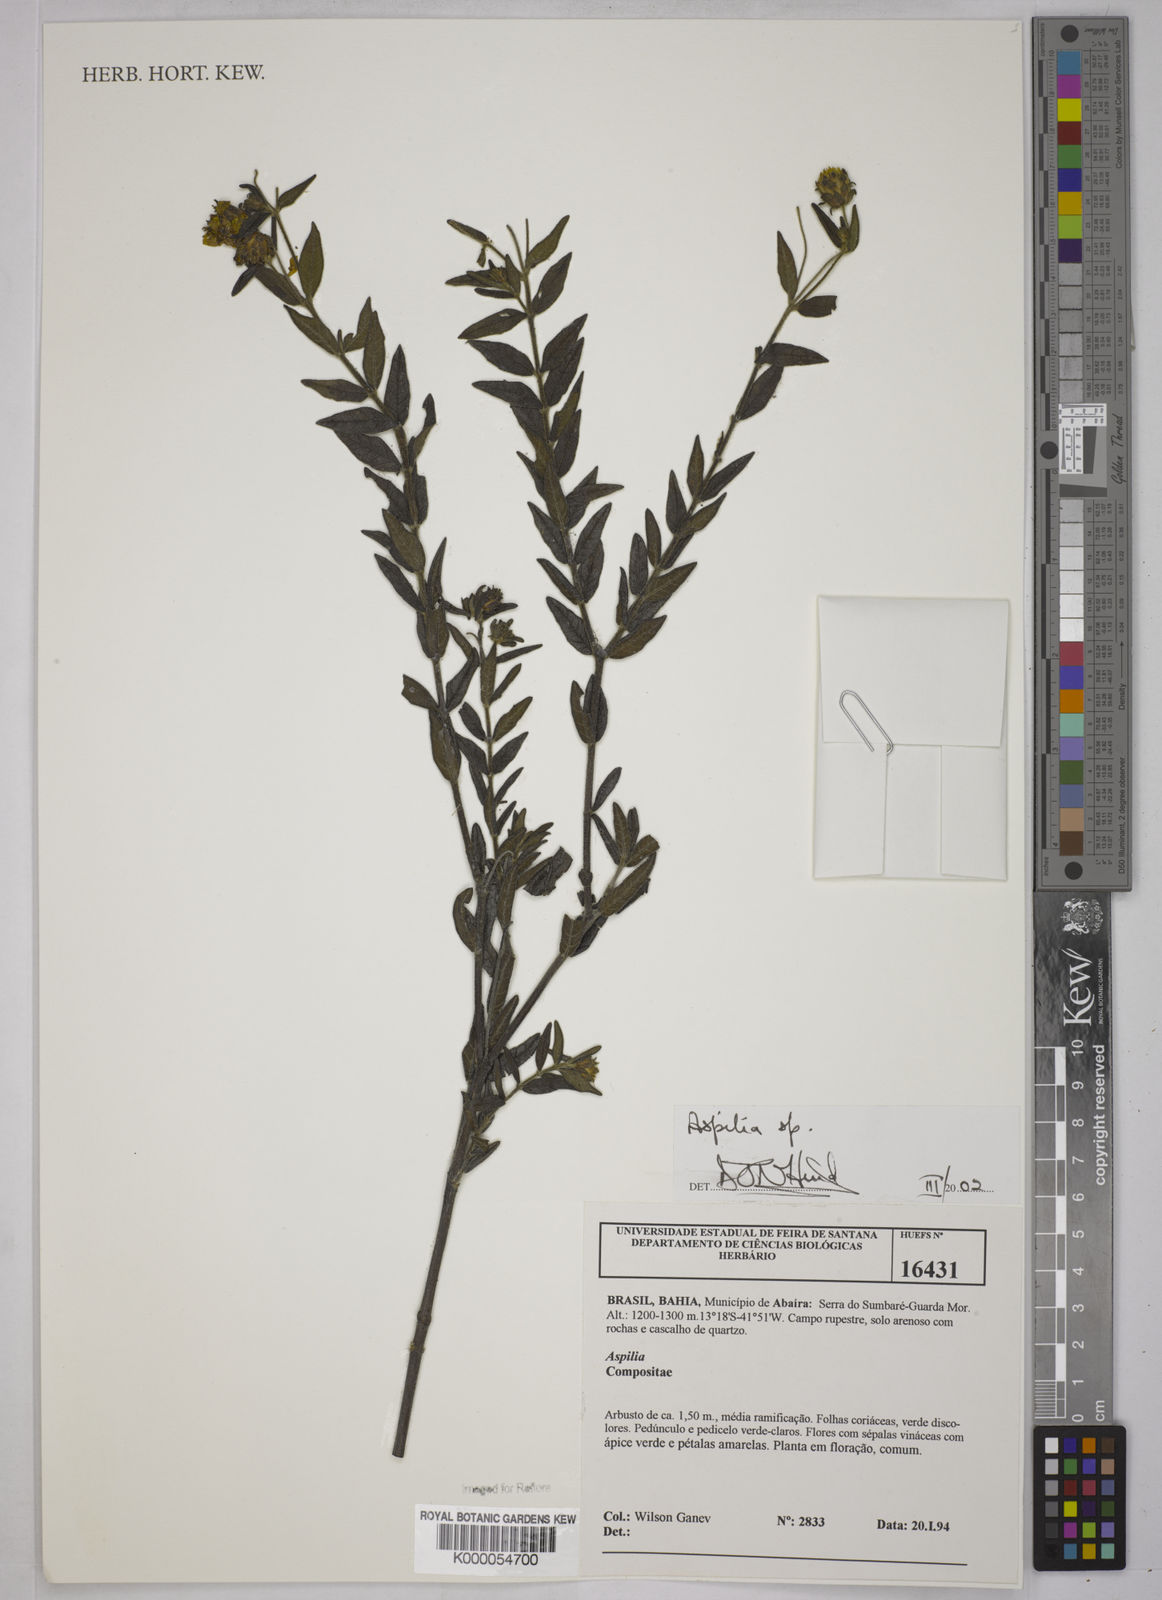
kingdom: Plantae
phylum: Tracheophyta
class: Magnoliopsida
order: Asterales
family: Asteraceae
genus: Aspilia
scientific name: Aspilia
